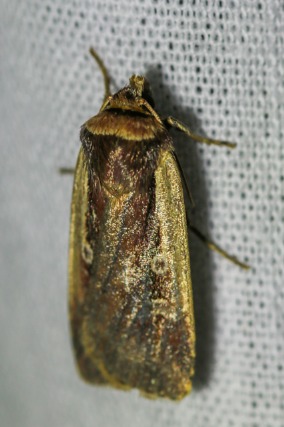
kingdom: Animalia
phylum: Arthropoda
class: Insecta
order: Lepidoptera
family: Noctuidae
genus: Ochropleura
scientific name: Ochropleura plecta
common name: Hvidrandet jordugle
